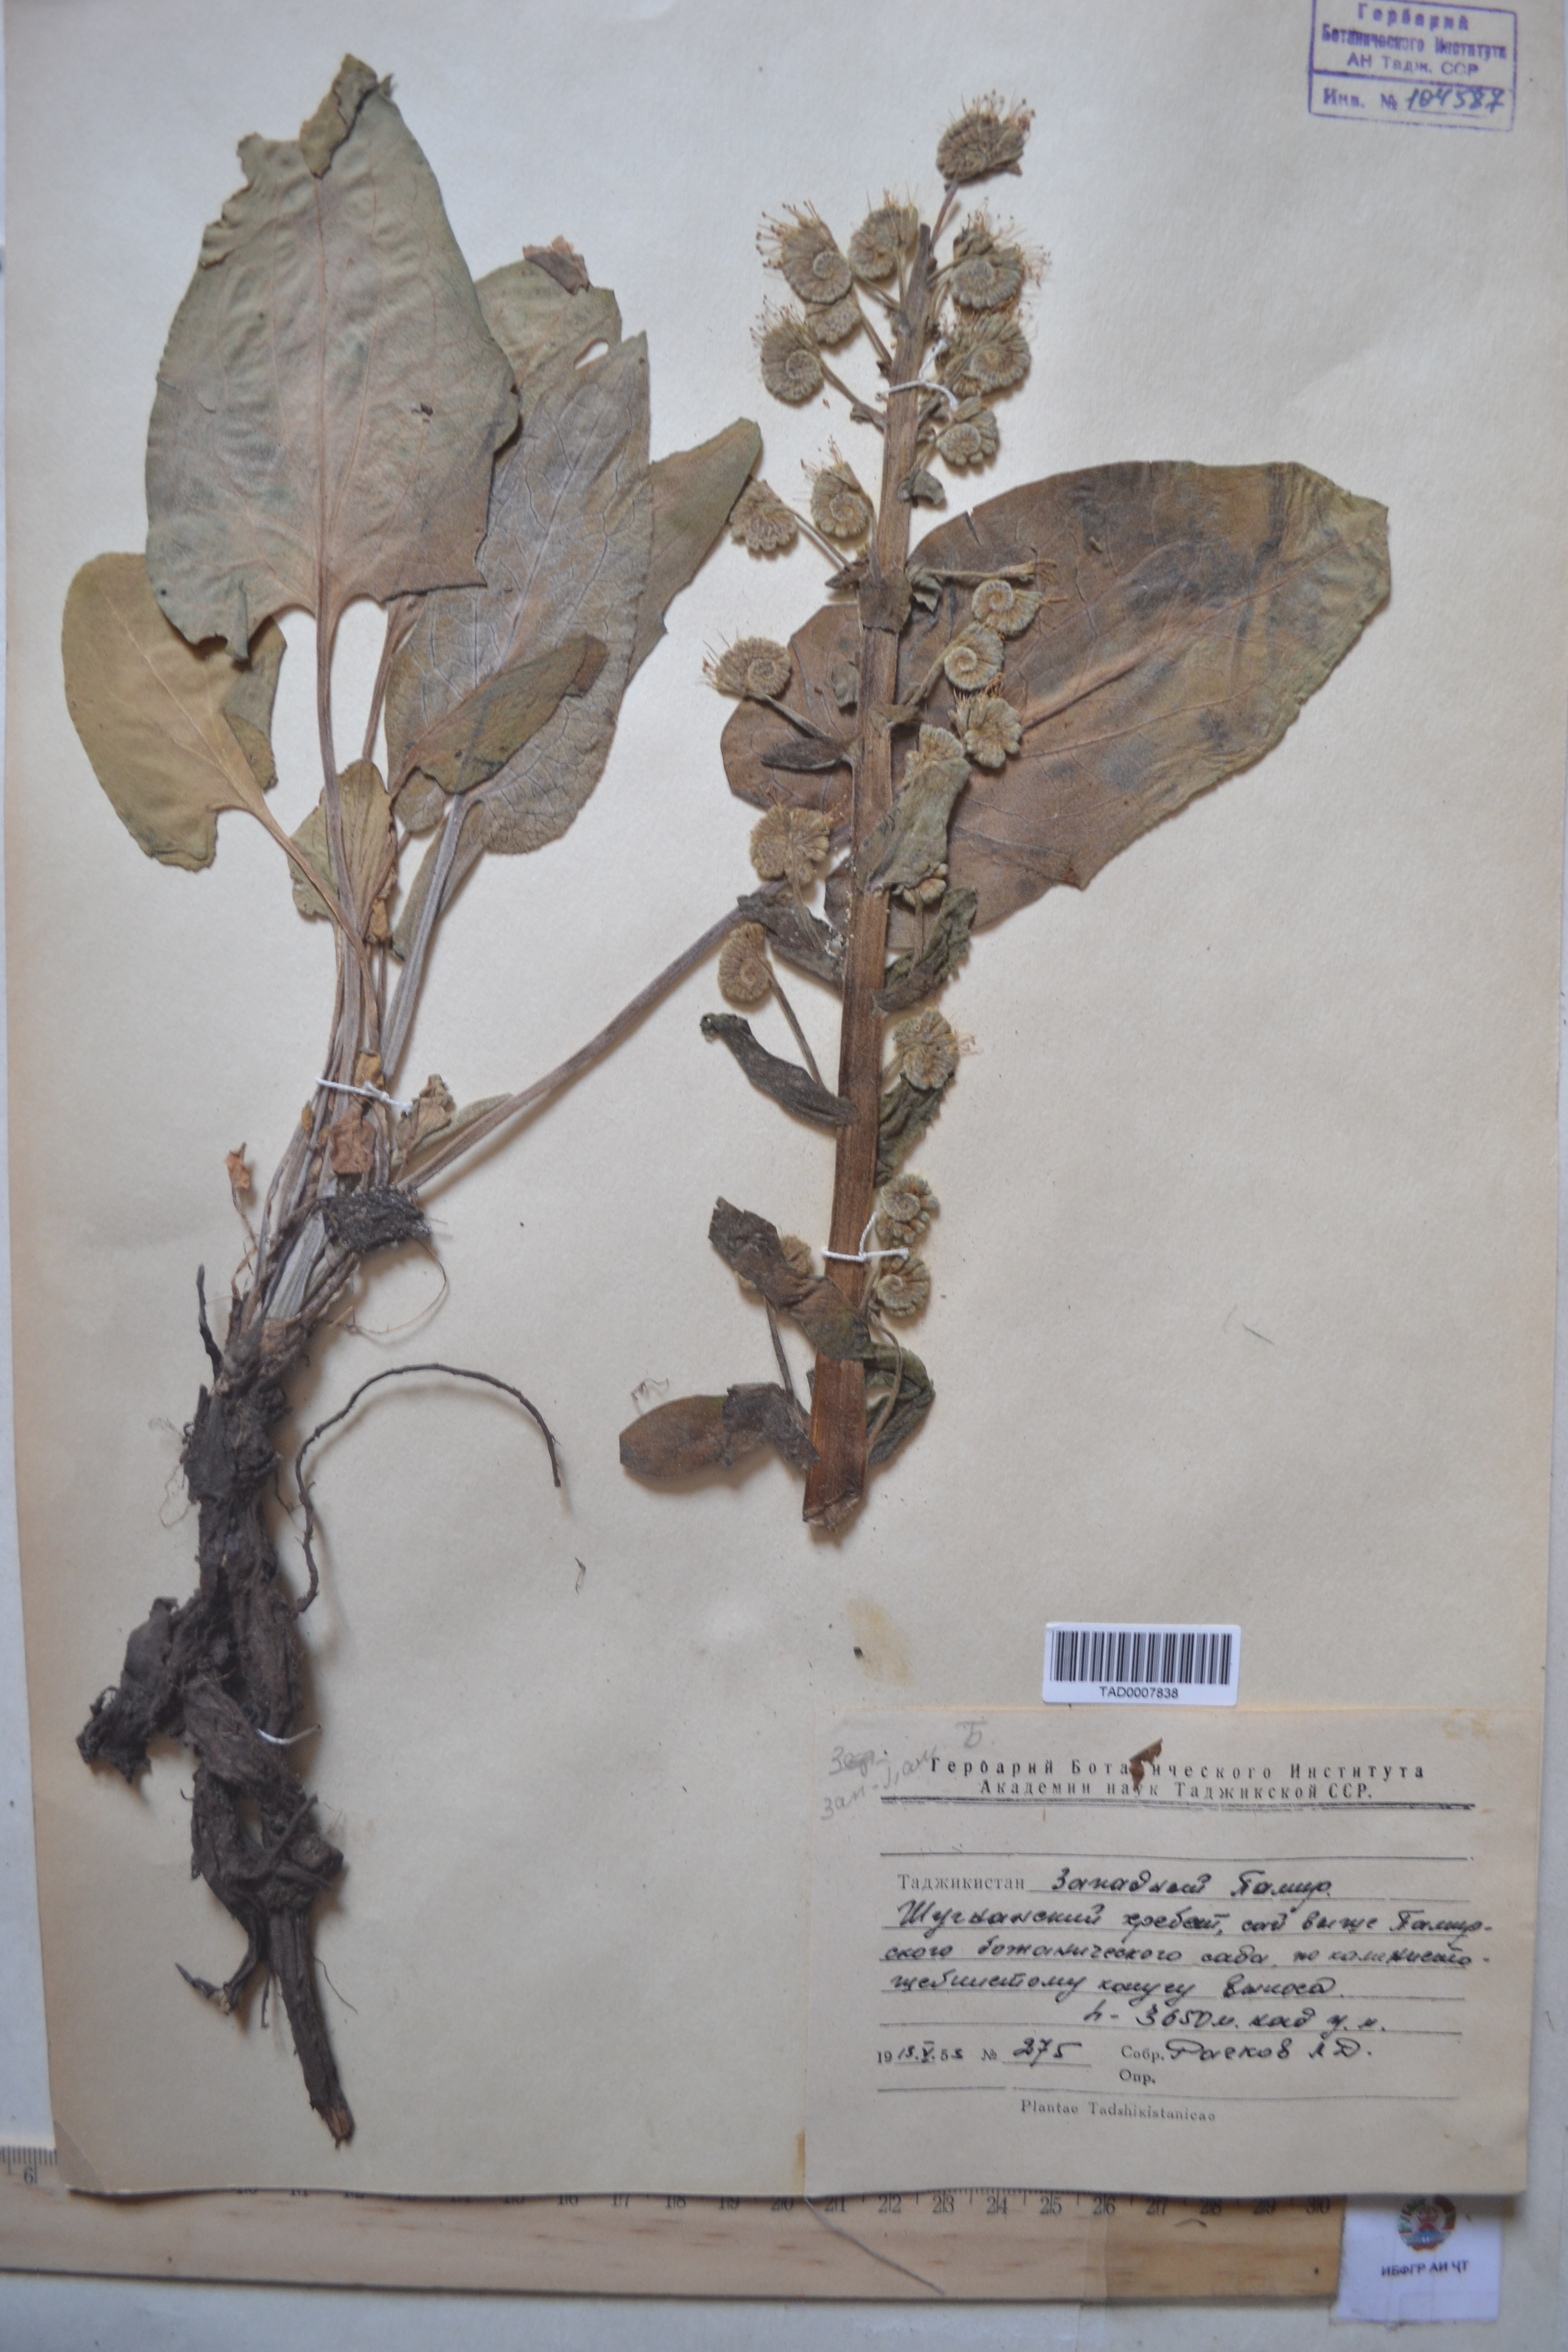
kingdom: Plantae
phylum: Tracheophyta
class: Magnoliopsida
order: Boraginales
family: Boraginaceae
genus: Solenanthus
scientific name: Solenanthus circinnatus
